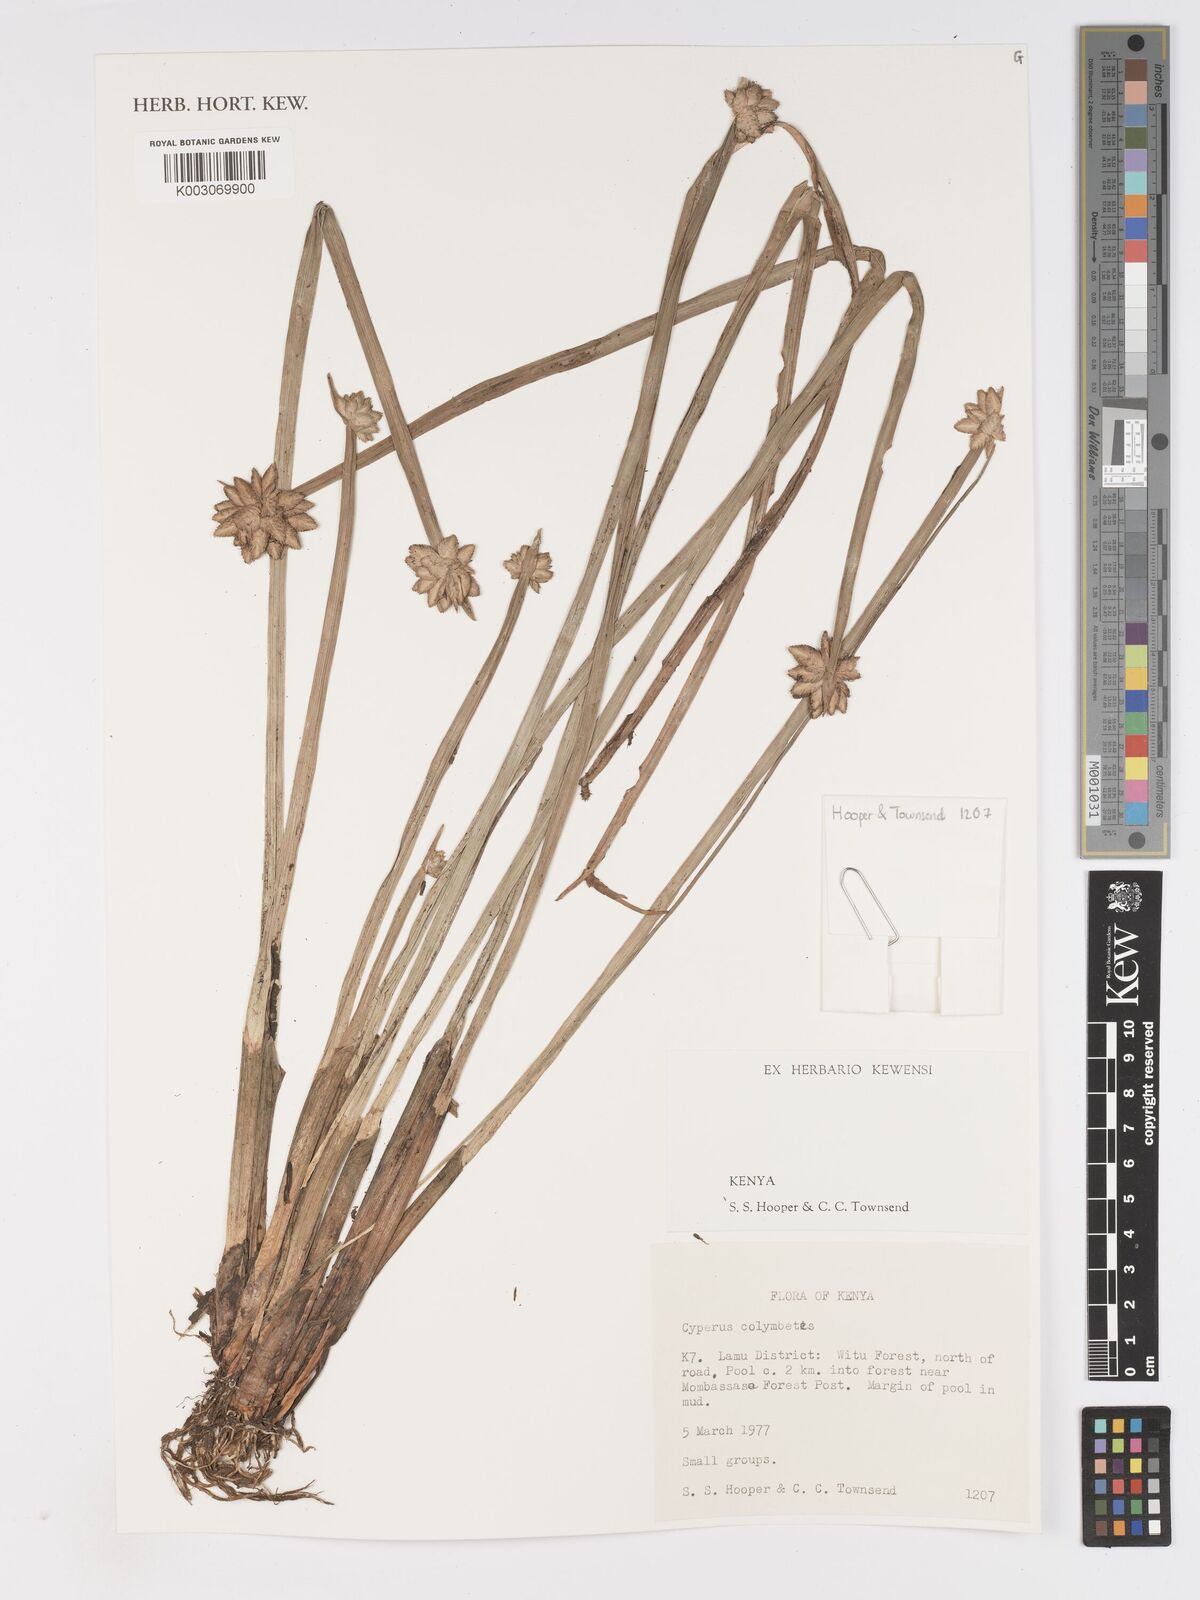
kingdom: Plantae
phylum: Tracheophyta
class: Liliopsida
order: Poales
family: Cyperaceae
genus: Cyperus
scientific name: Cyperus colymbetes
